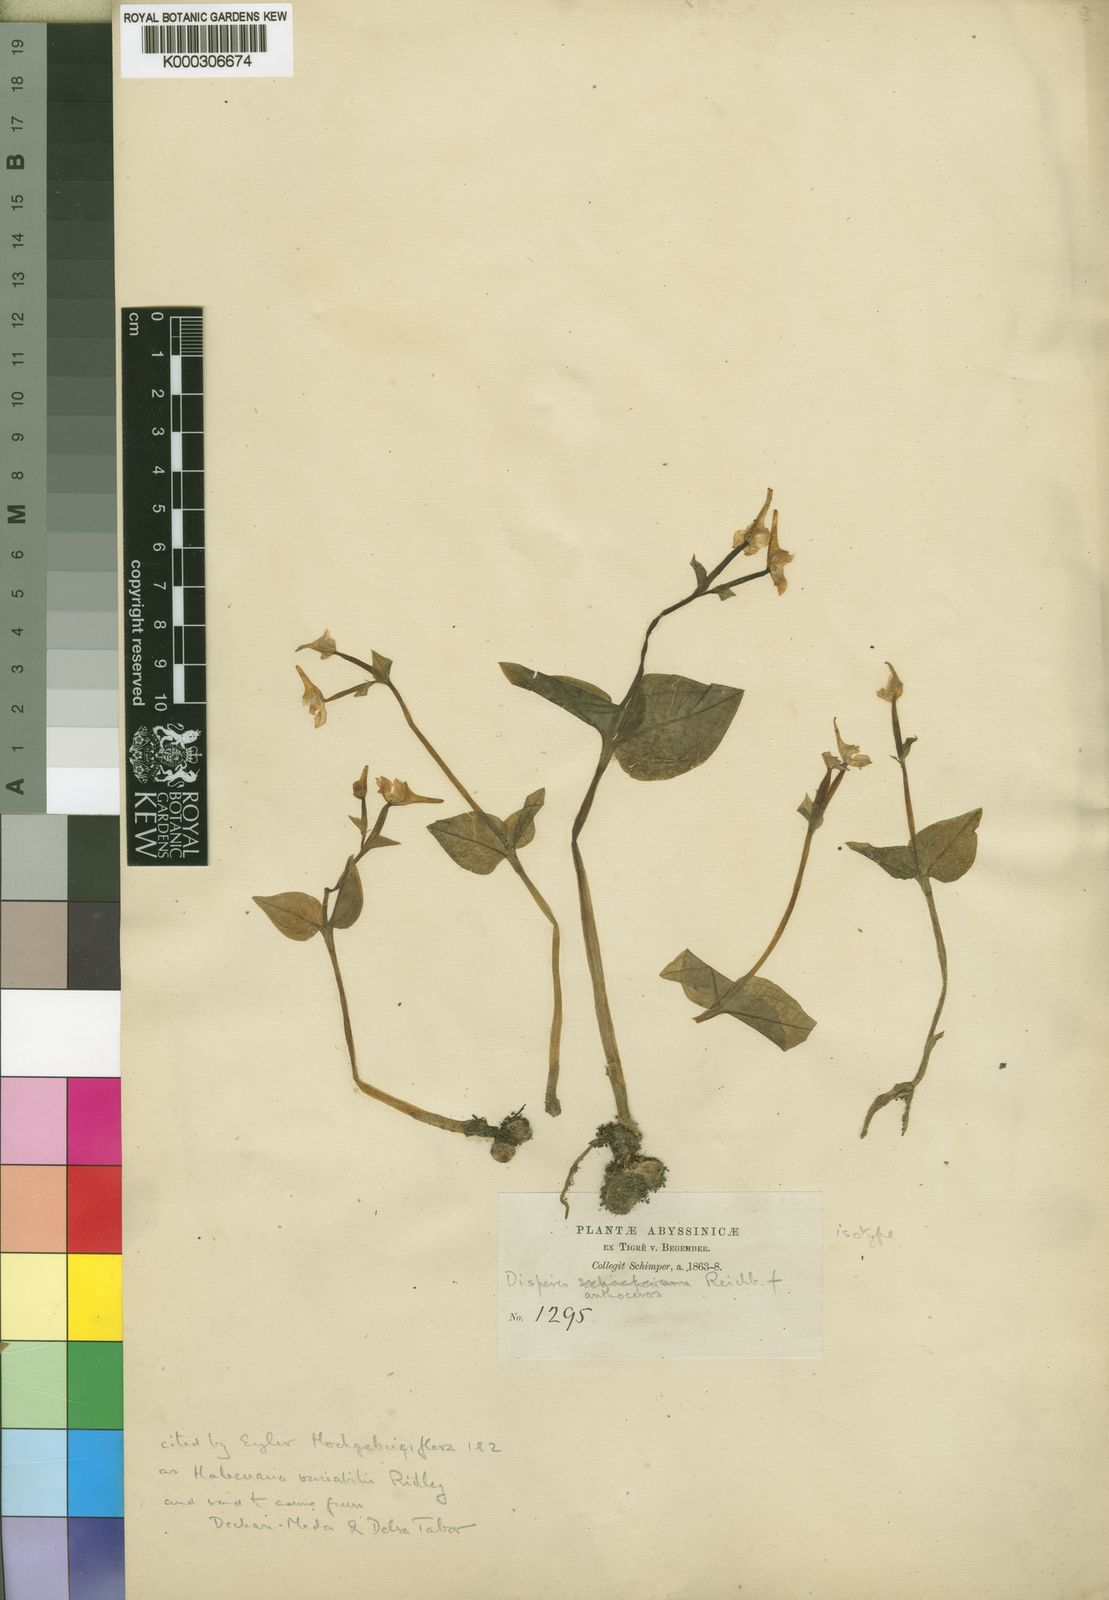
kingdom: Plantae
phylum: Tracheophyta
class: Liliopsida
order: Asparagales
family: Orchidaceae
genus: Disperis
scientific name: Disperis anthoceros
